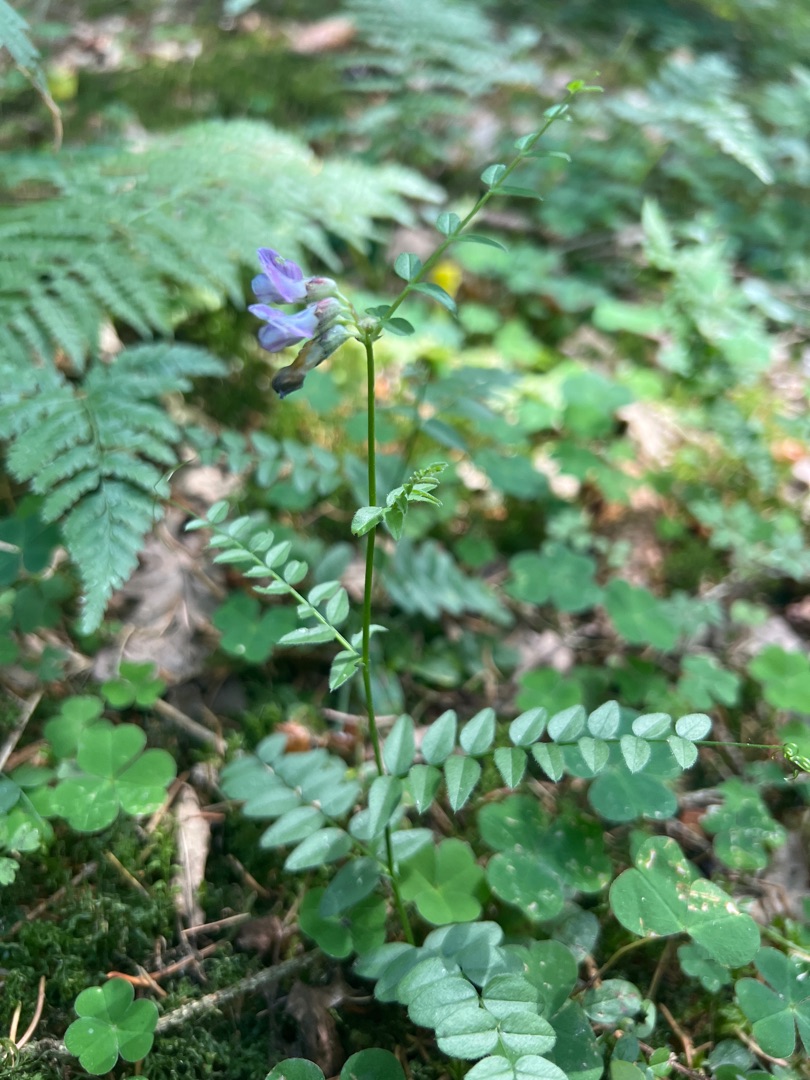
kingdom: Plantae
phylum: Tracheophyta
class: Magnoliopsida
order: Fabales
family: Fabaceae
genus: Vicia
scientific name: Vicia sepium
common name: Gærde-vikke
